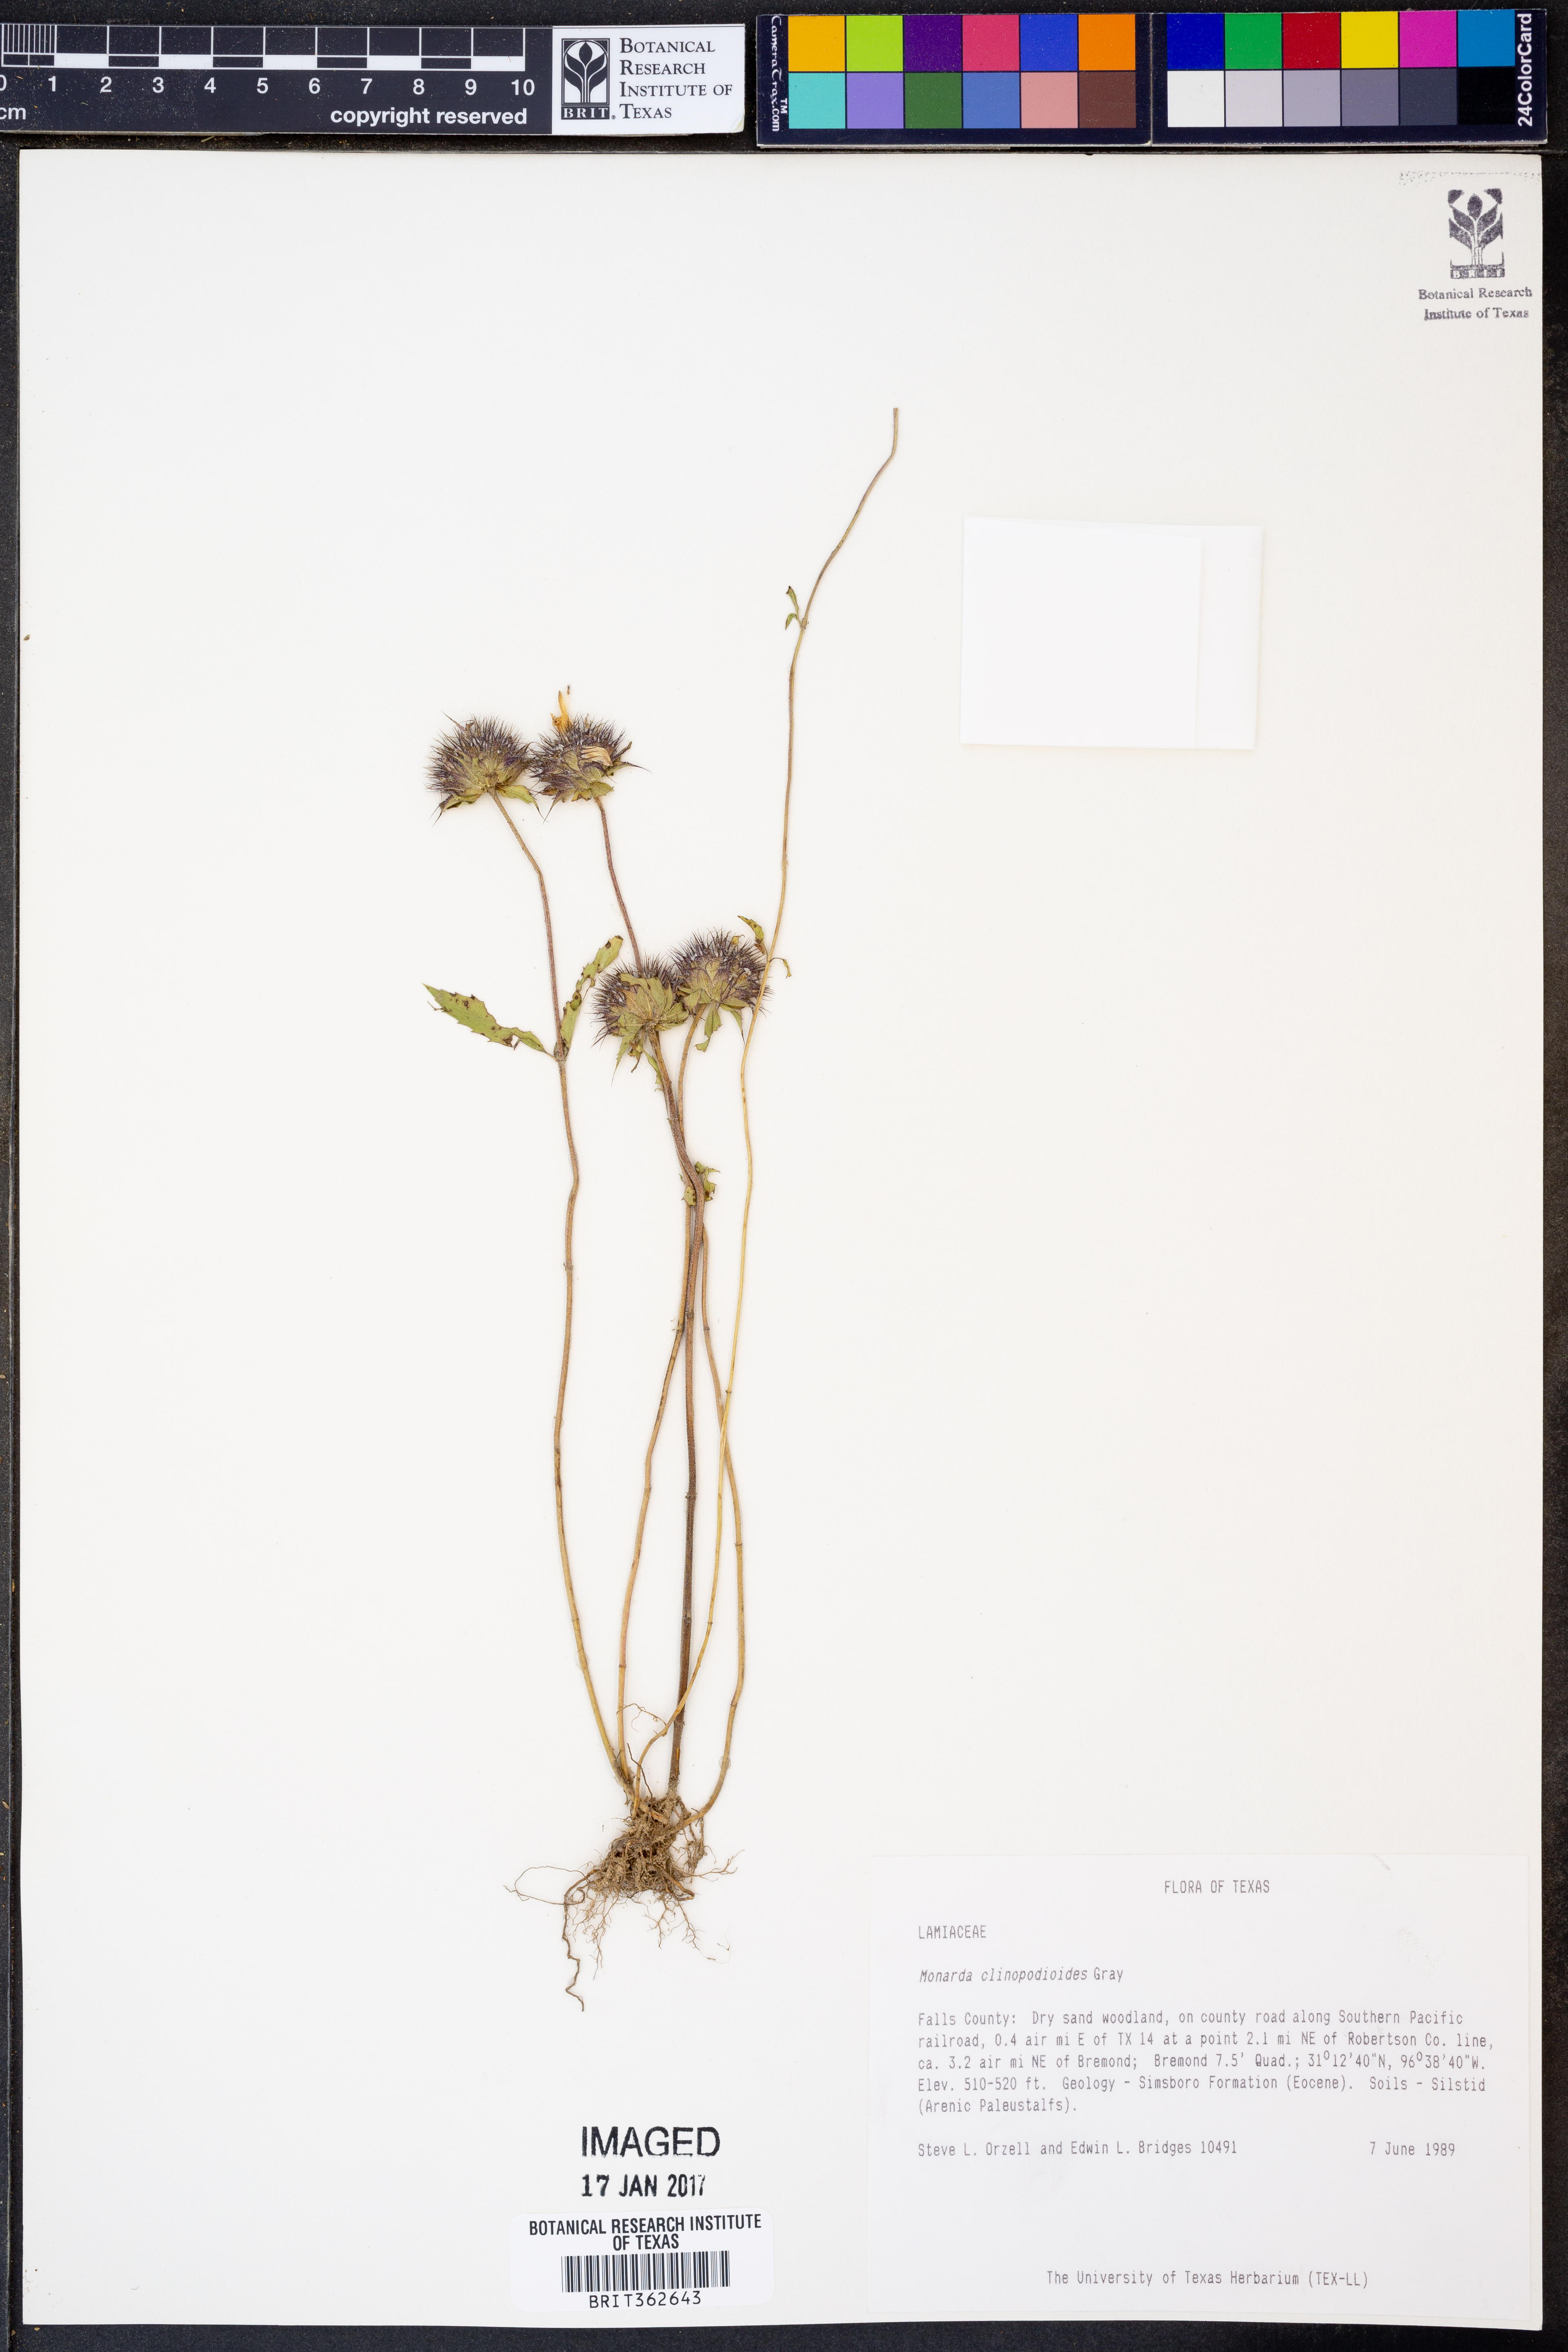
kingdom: Plantae
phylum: Tracheophyta
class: Magnoliopsida
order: Lamiales
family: Lamiaceae
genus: Monarda
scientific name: Monarda clinopodioides
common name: Basil beebalm
